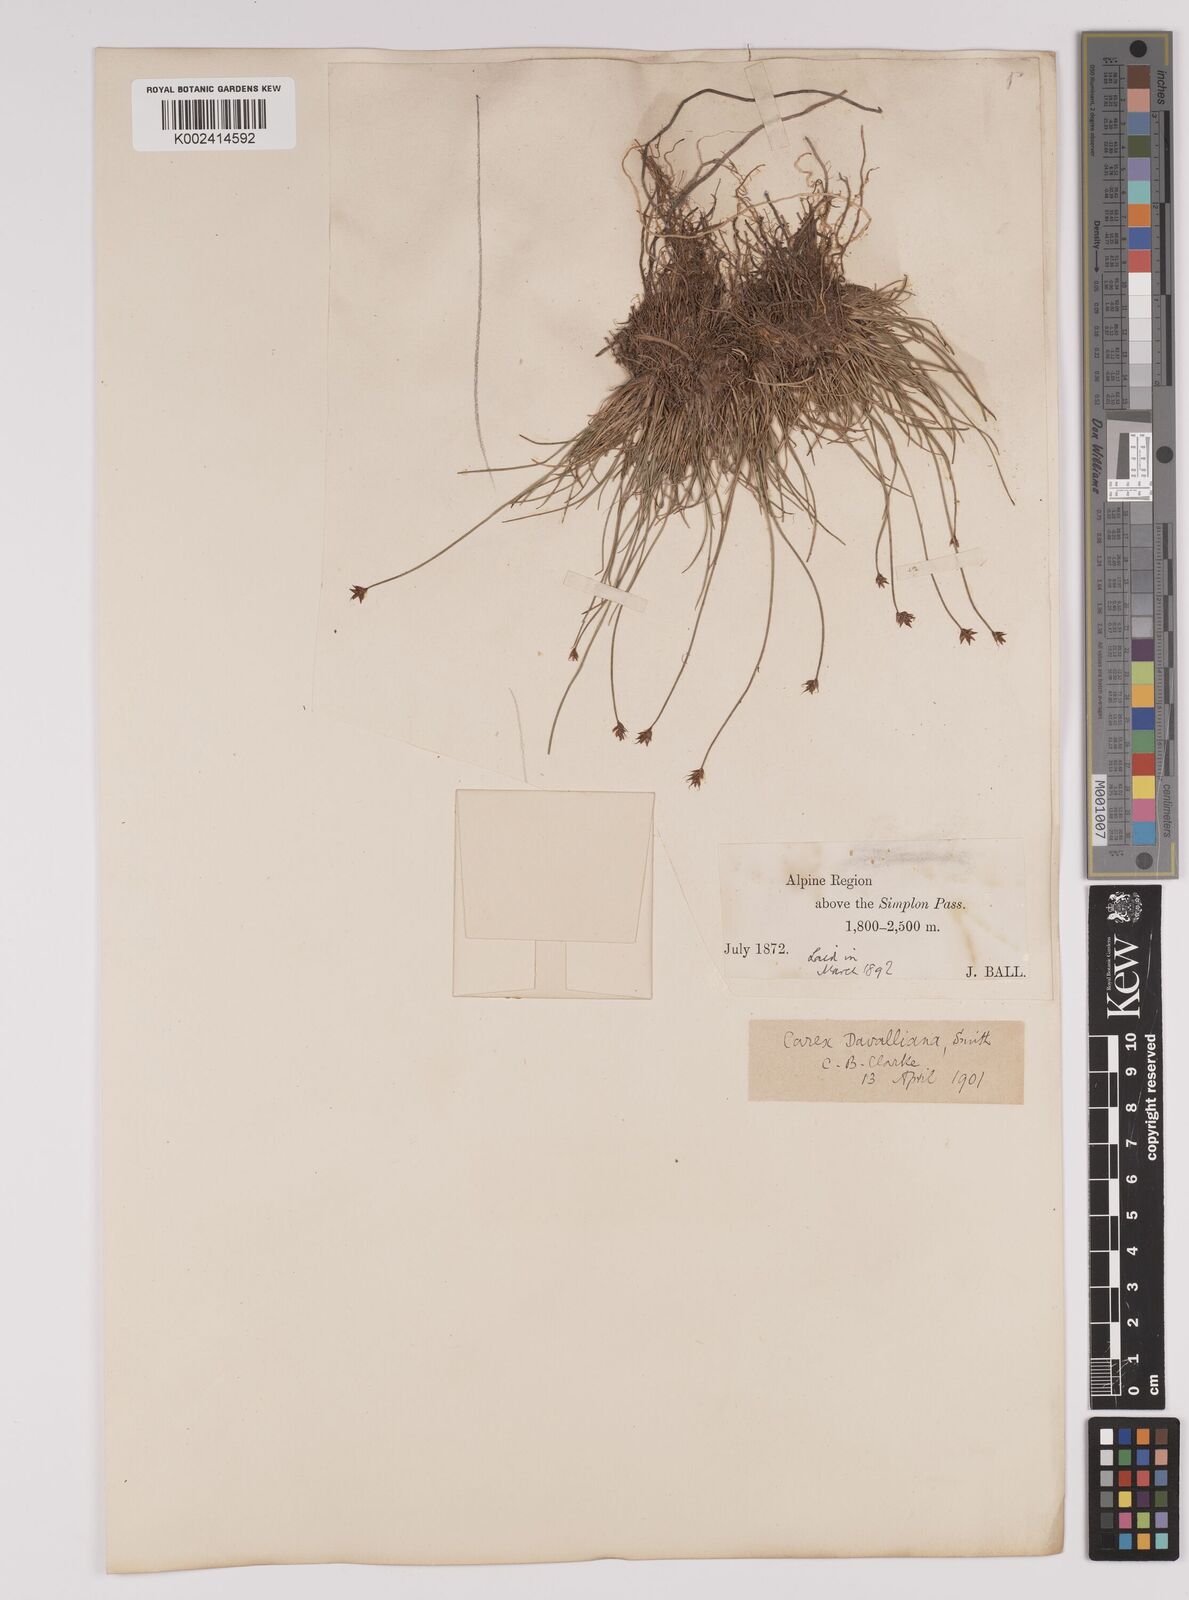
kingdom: Plantae
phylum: Tracheophyta
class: Liliopsida
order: Poales
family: Cyperaceae
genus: Carex
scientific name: Carex davalliana
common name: Davall's sedge
